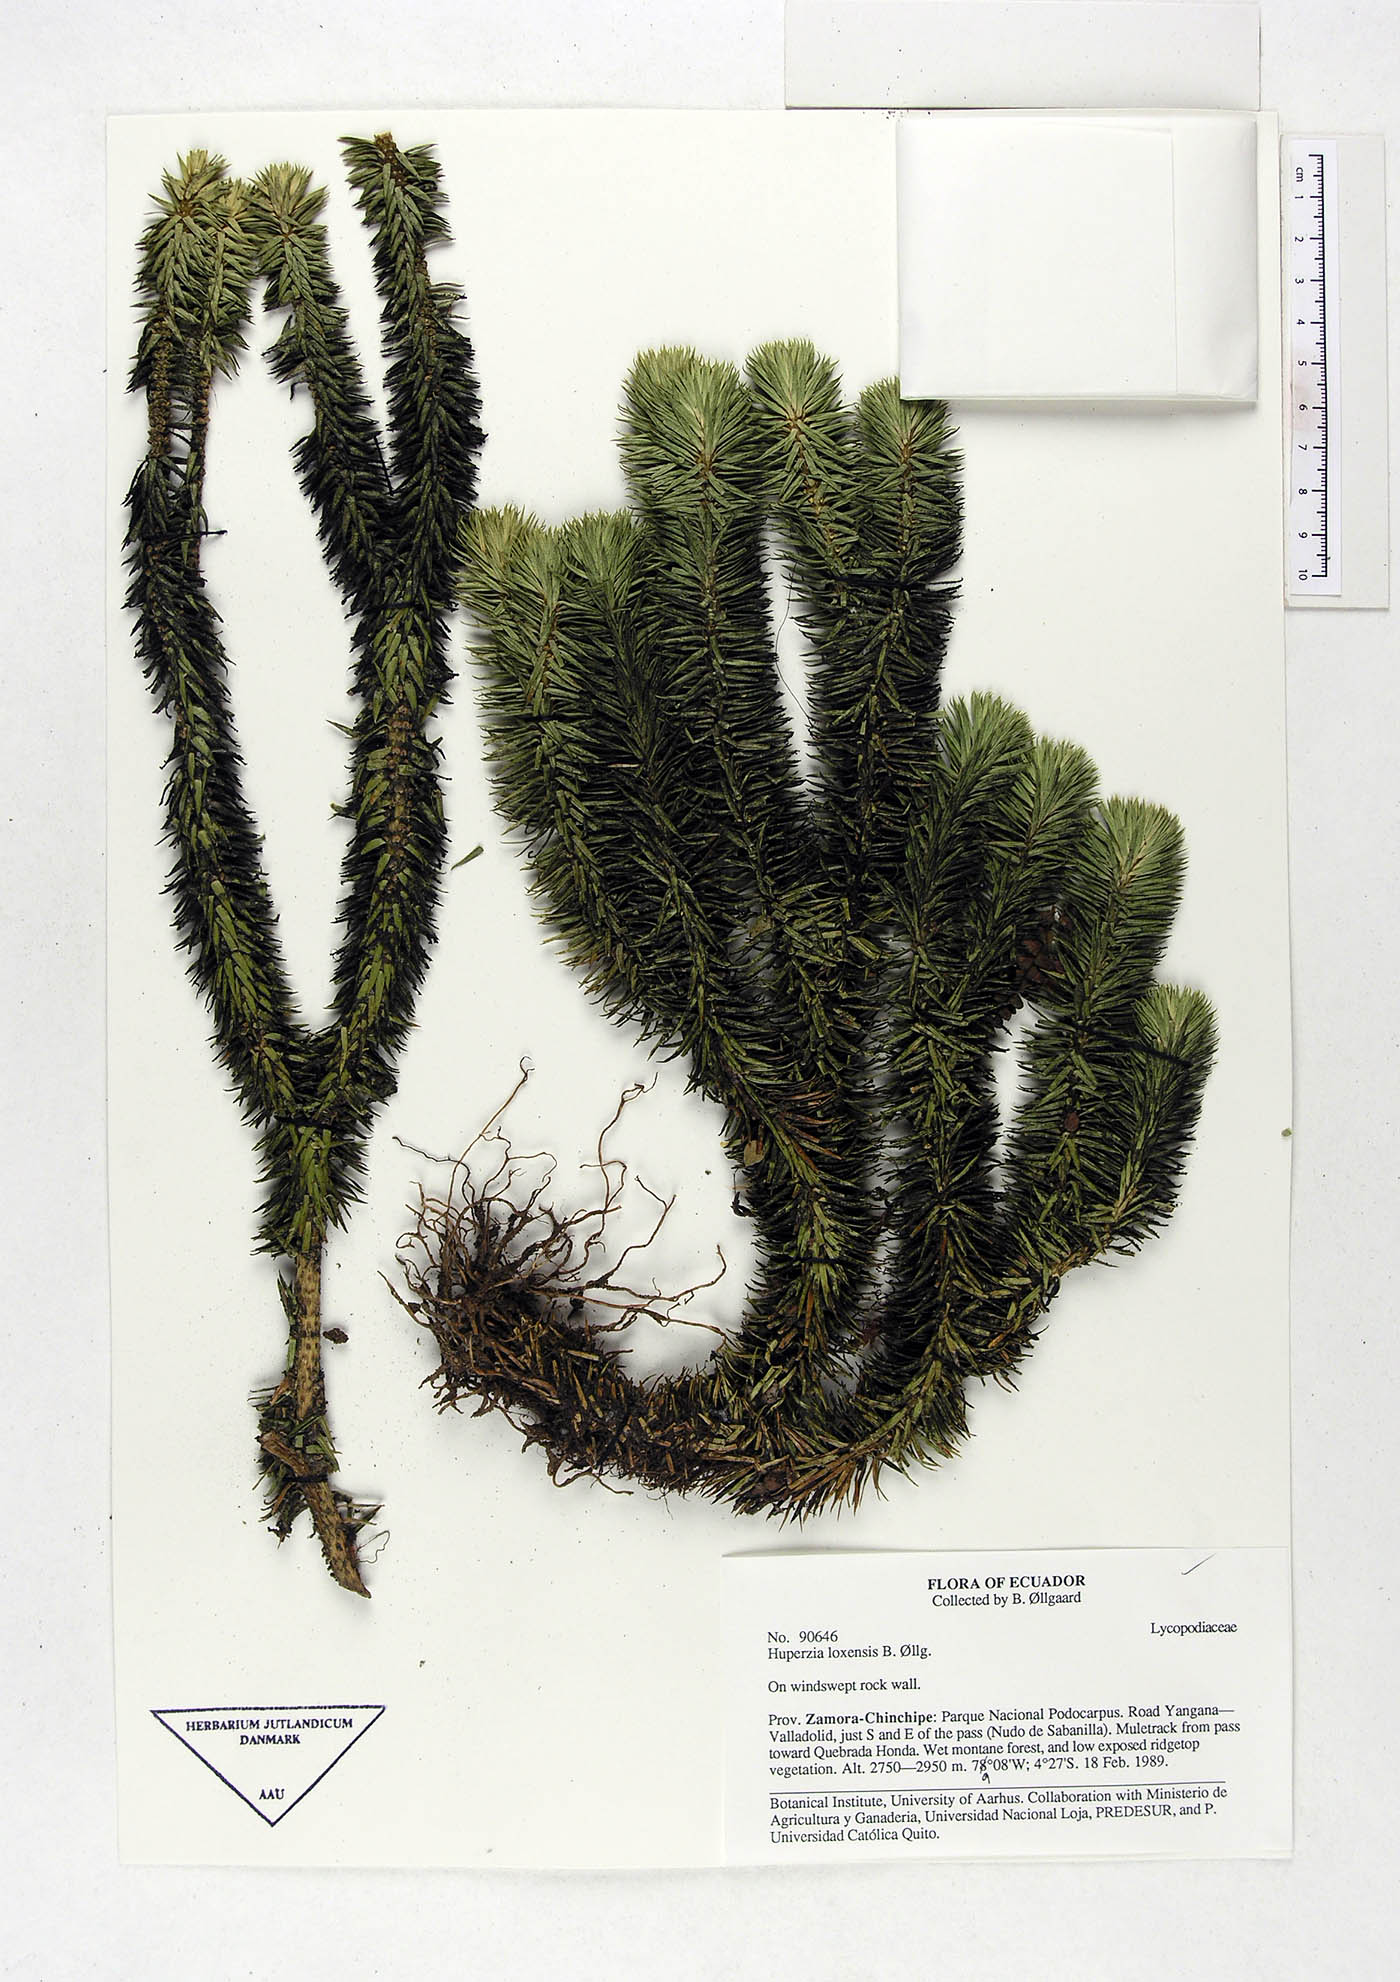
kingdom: Plantae
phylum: Tracheophyta
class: Lycopodiopsida
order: Lycopodiales
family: Lycopodiaceae
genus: Phlegmariurus
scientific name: Phlegmariurus loxensis
